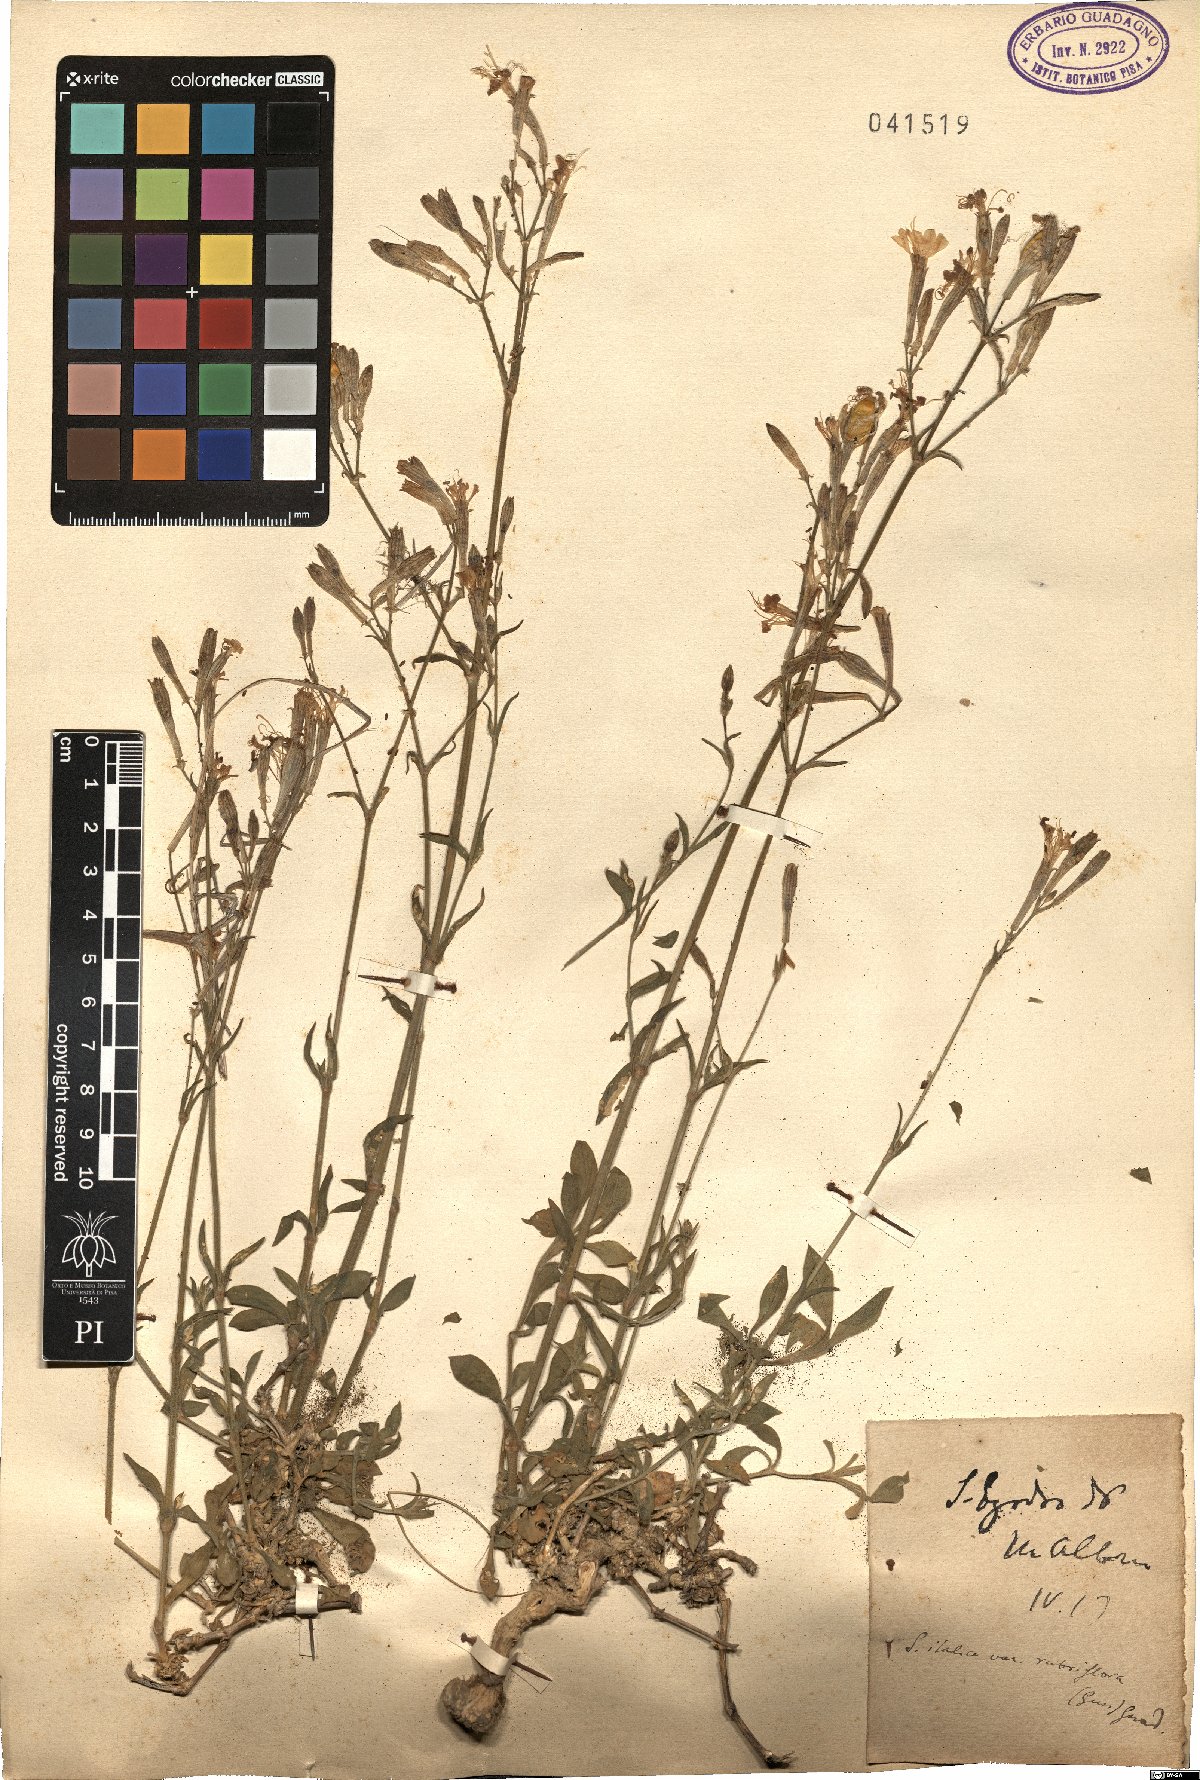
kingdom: Plantae
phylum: Tracheophyta
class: Magnoliopsida
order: Caryophyllales
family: Caryophyllaceae
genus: Silene
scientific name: Silene italica
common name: Italian catchfly
